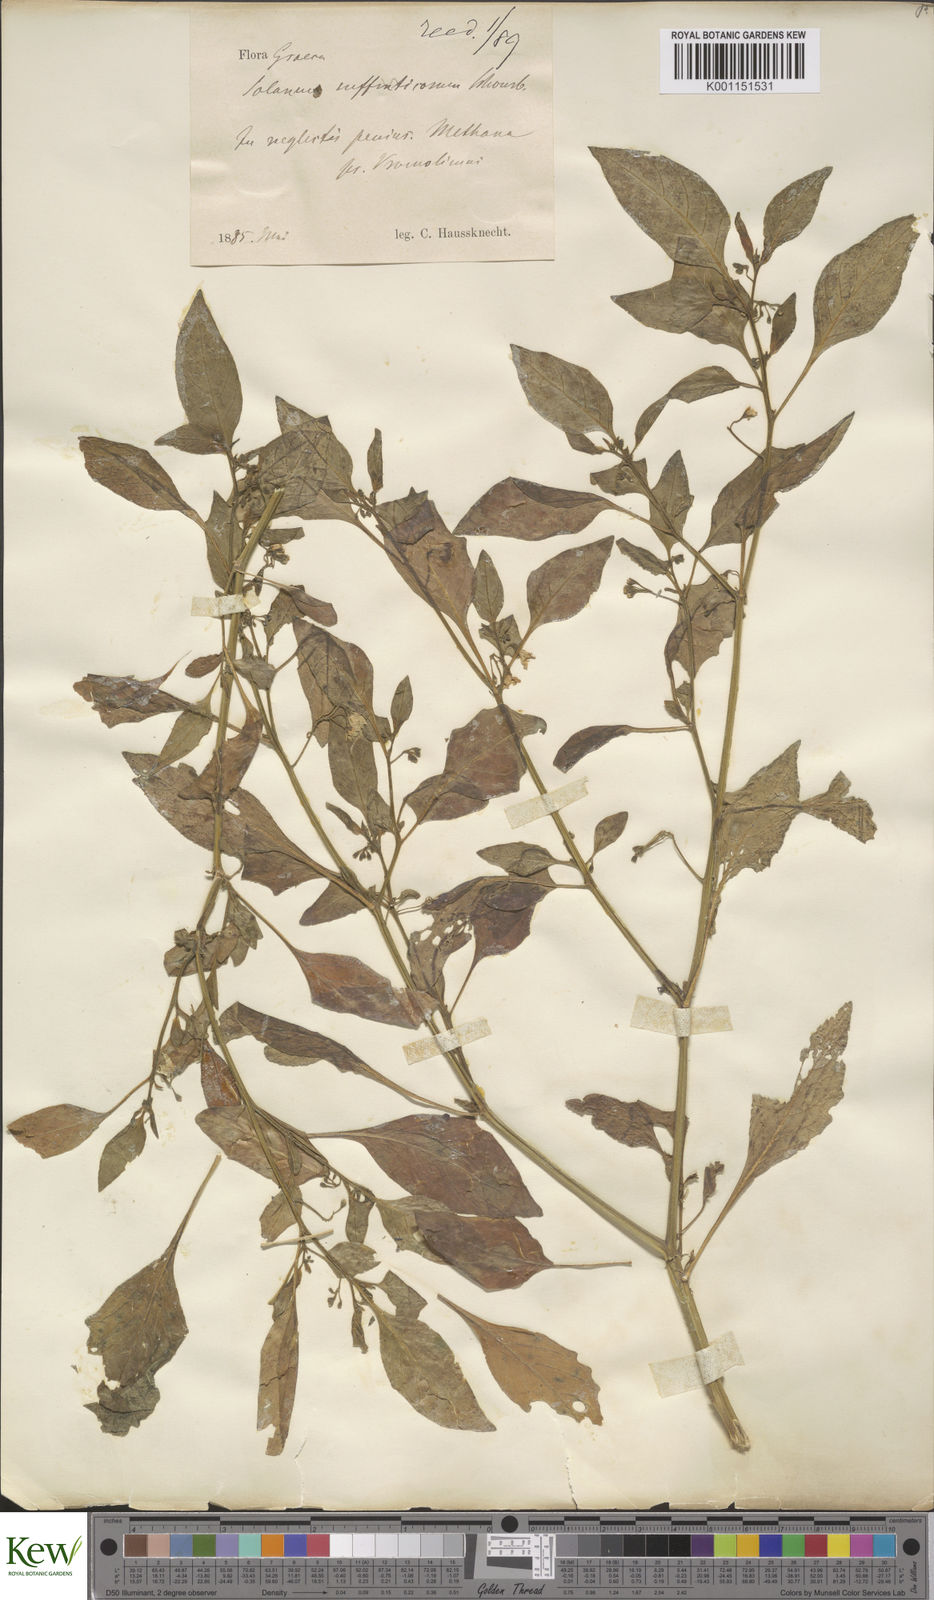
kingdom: Plantae
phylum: Tracheophyta
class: Magnoliopsida
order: Solanales
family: Solanaceae
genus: Solanum
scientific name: Solanum villosum
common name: Red nightshade
